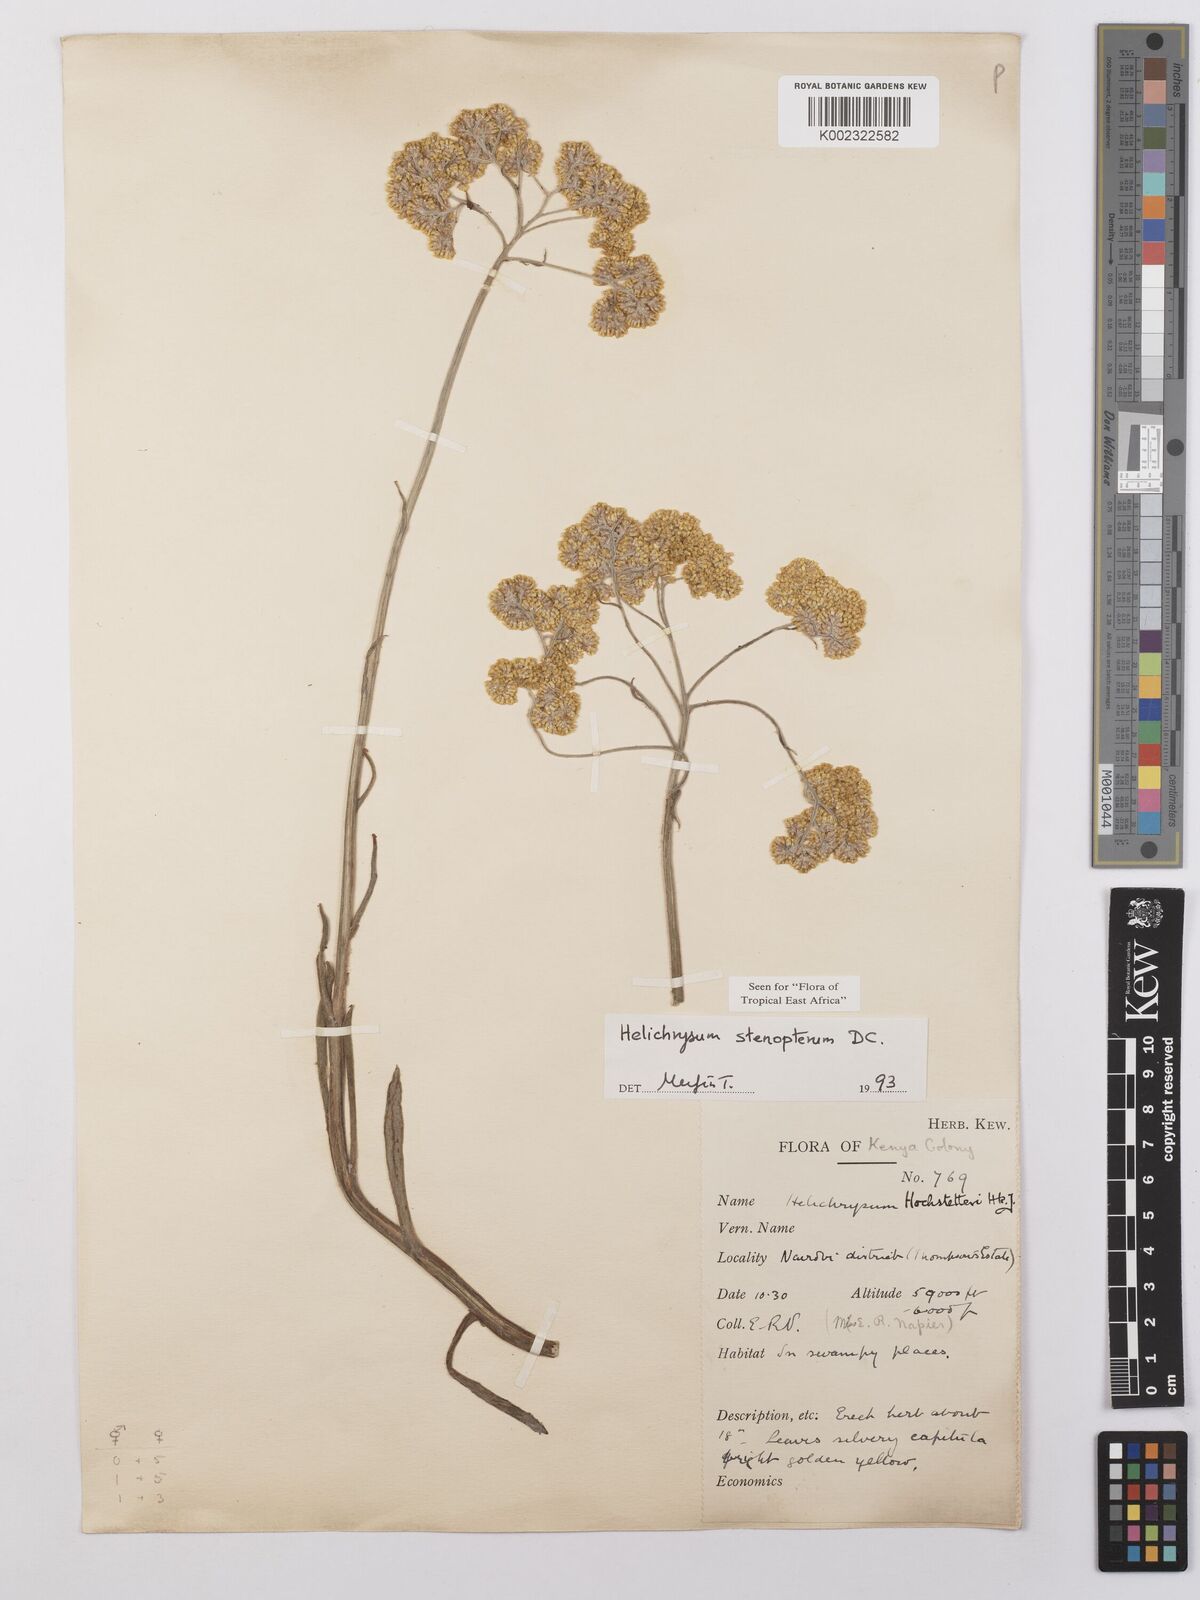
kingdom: Plantae
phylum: Tracheophyta
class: Magnoliopsida
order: Asterales
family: Asteraceae
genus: Helichrysum
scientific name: Helichrysum stenopterum
